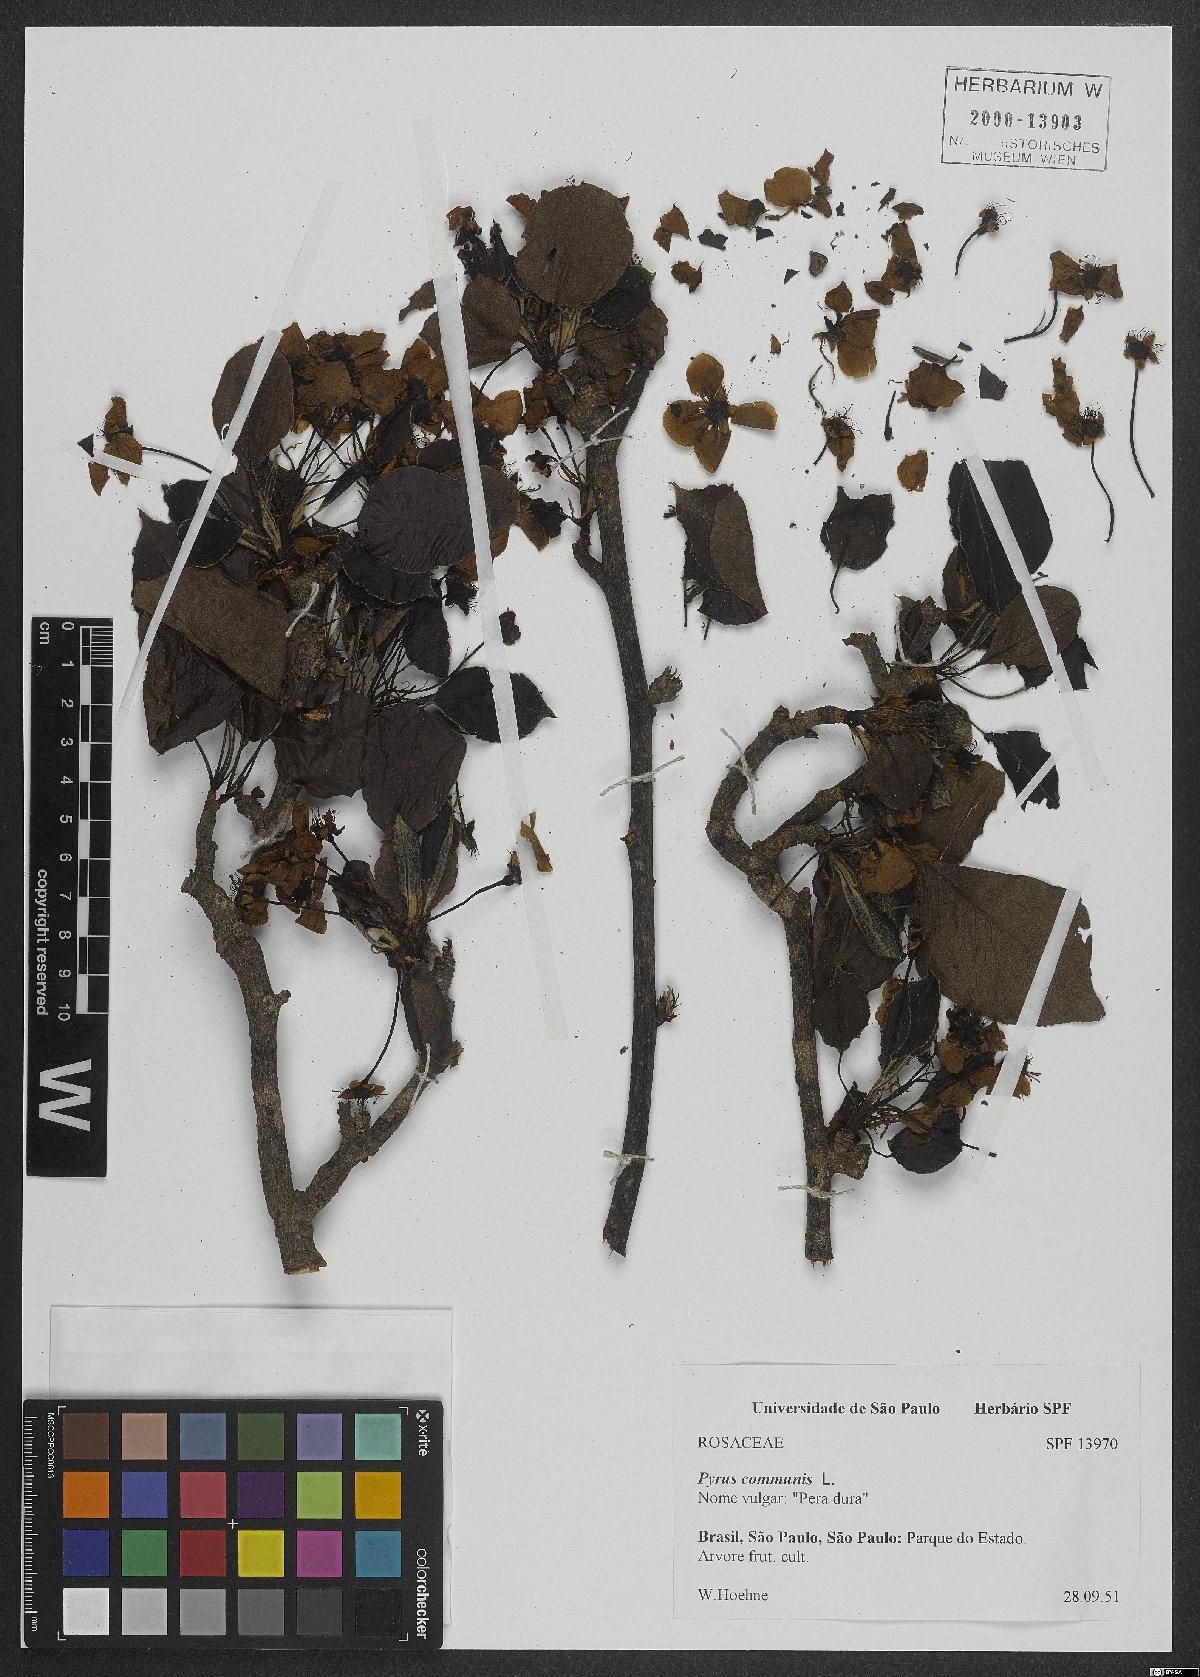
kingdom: Plantae
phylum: Tracheophyta
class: Magnoliopsida
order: Rosales
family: Rosaceae
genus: Pyrus
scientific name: Pyrus communis
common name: Pear
